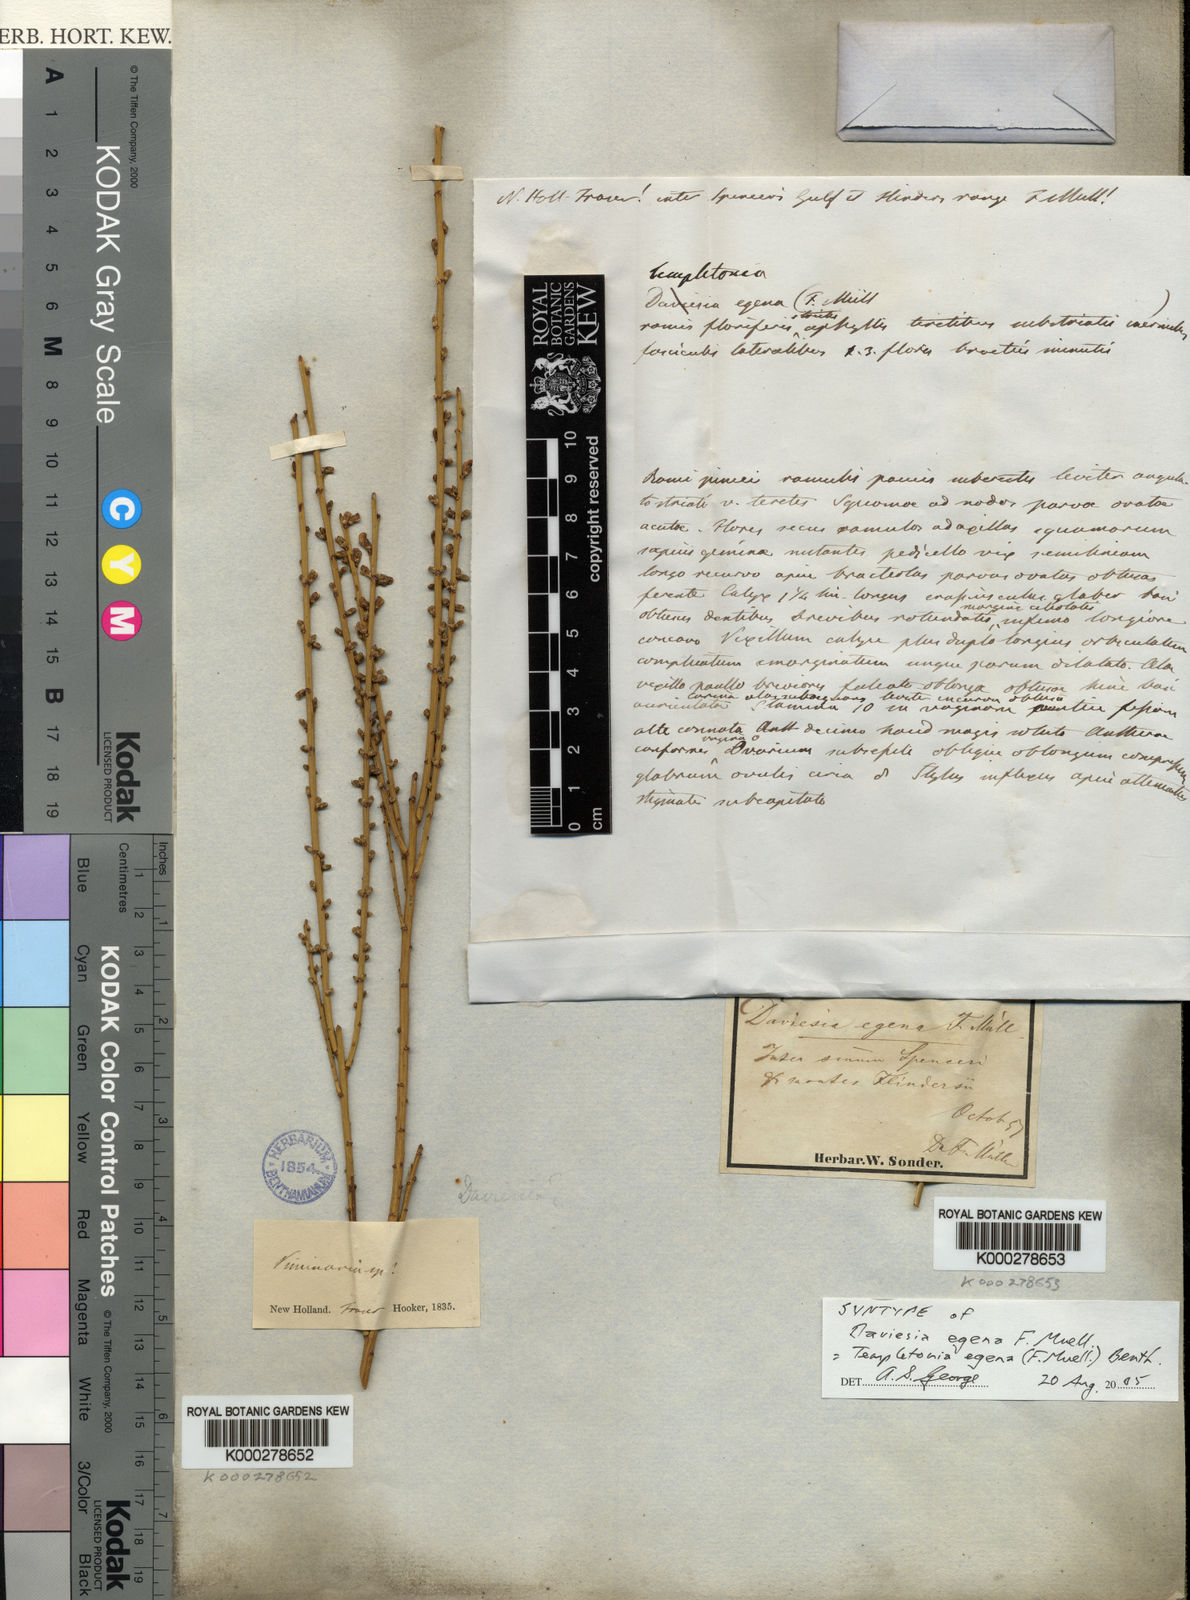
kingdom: Plantae
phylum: Tracheophyta
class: Magnoliopsida
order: Fabales
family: Fabaceae
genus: Templetonia
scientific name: Templetonia egena
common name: Desert broombush
